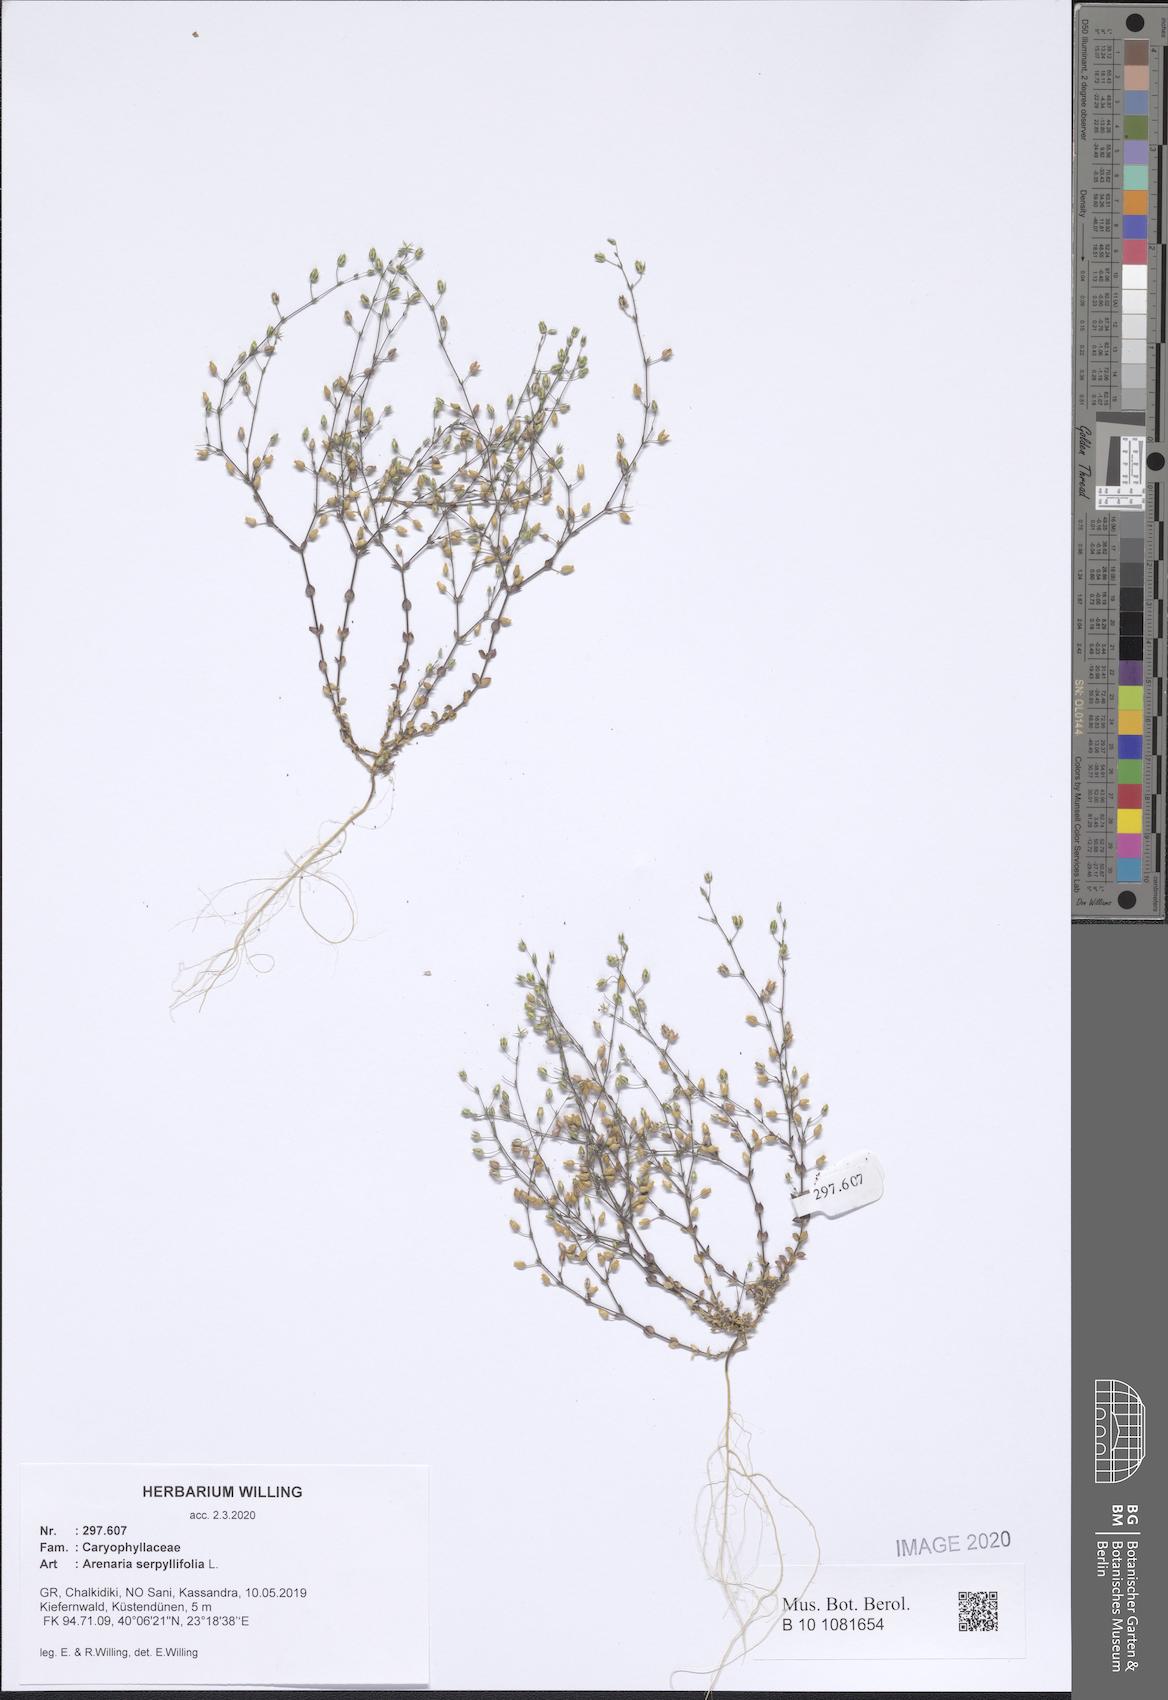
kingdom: Plantae
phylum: Tracheophyta
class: Magnoliopsida
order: Caryophyllales
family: Caryophyllaceae
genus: Arenaria
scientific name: Arenaria serpyllifolia
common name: Thyme-leaved sandwort
